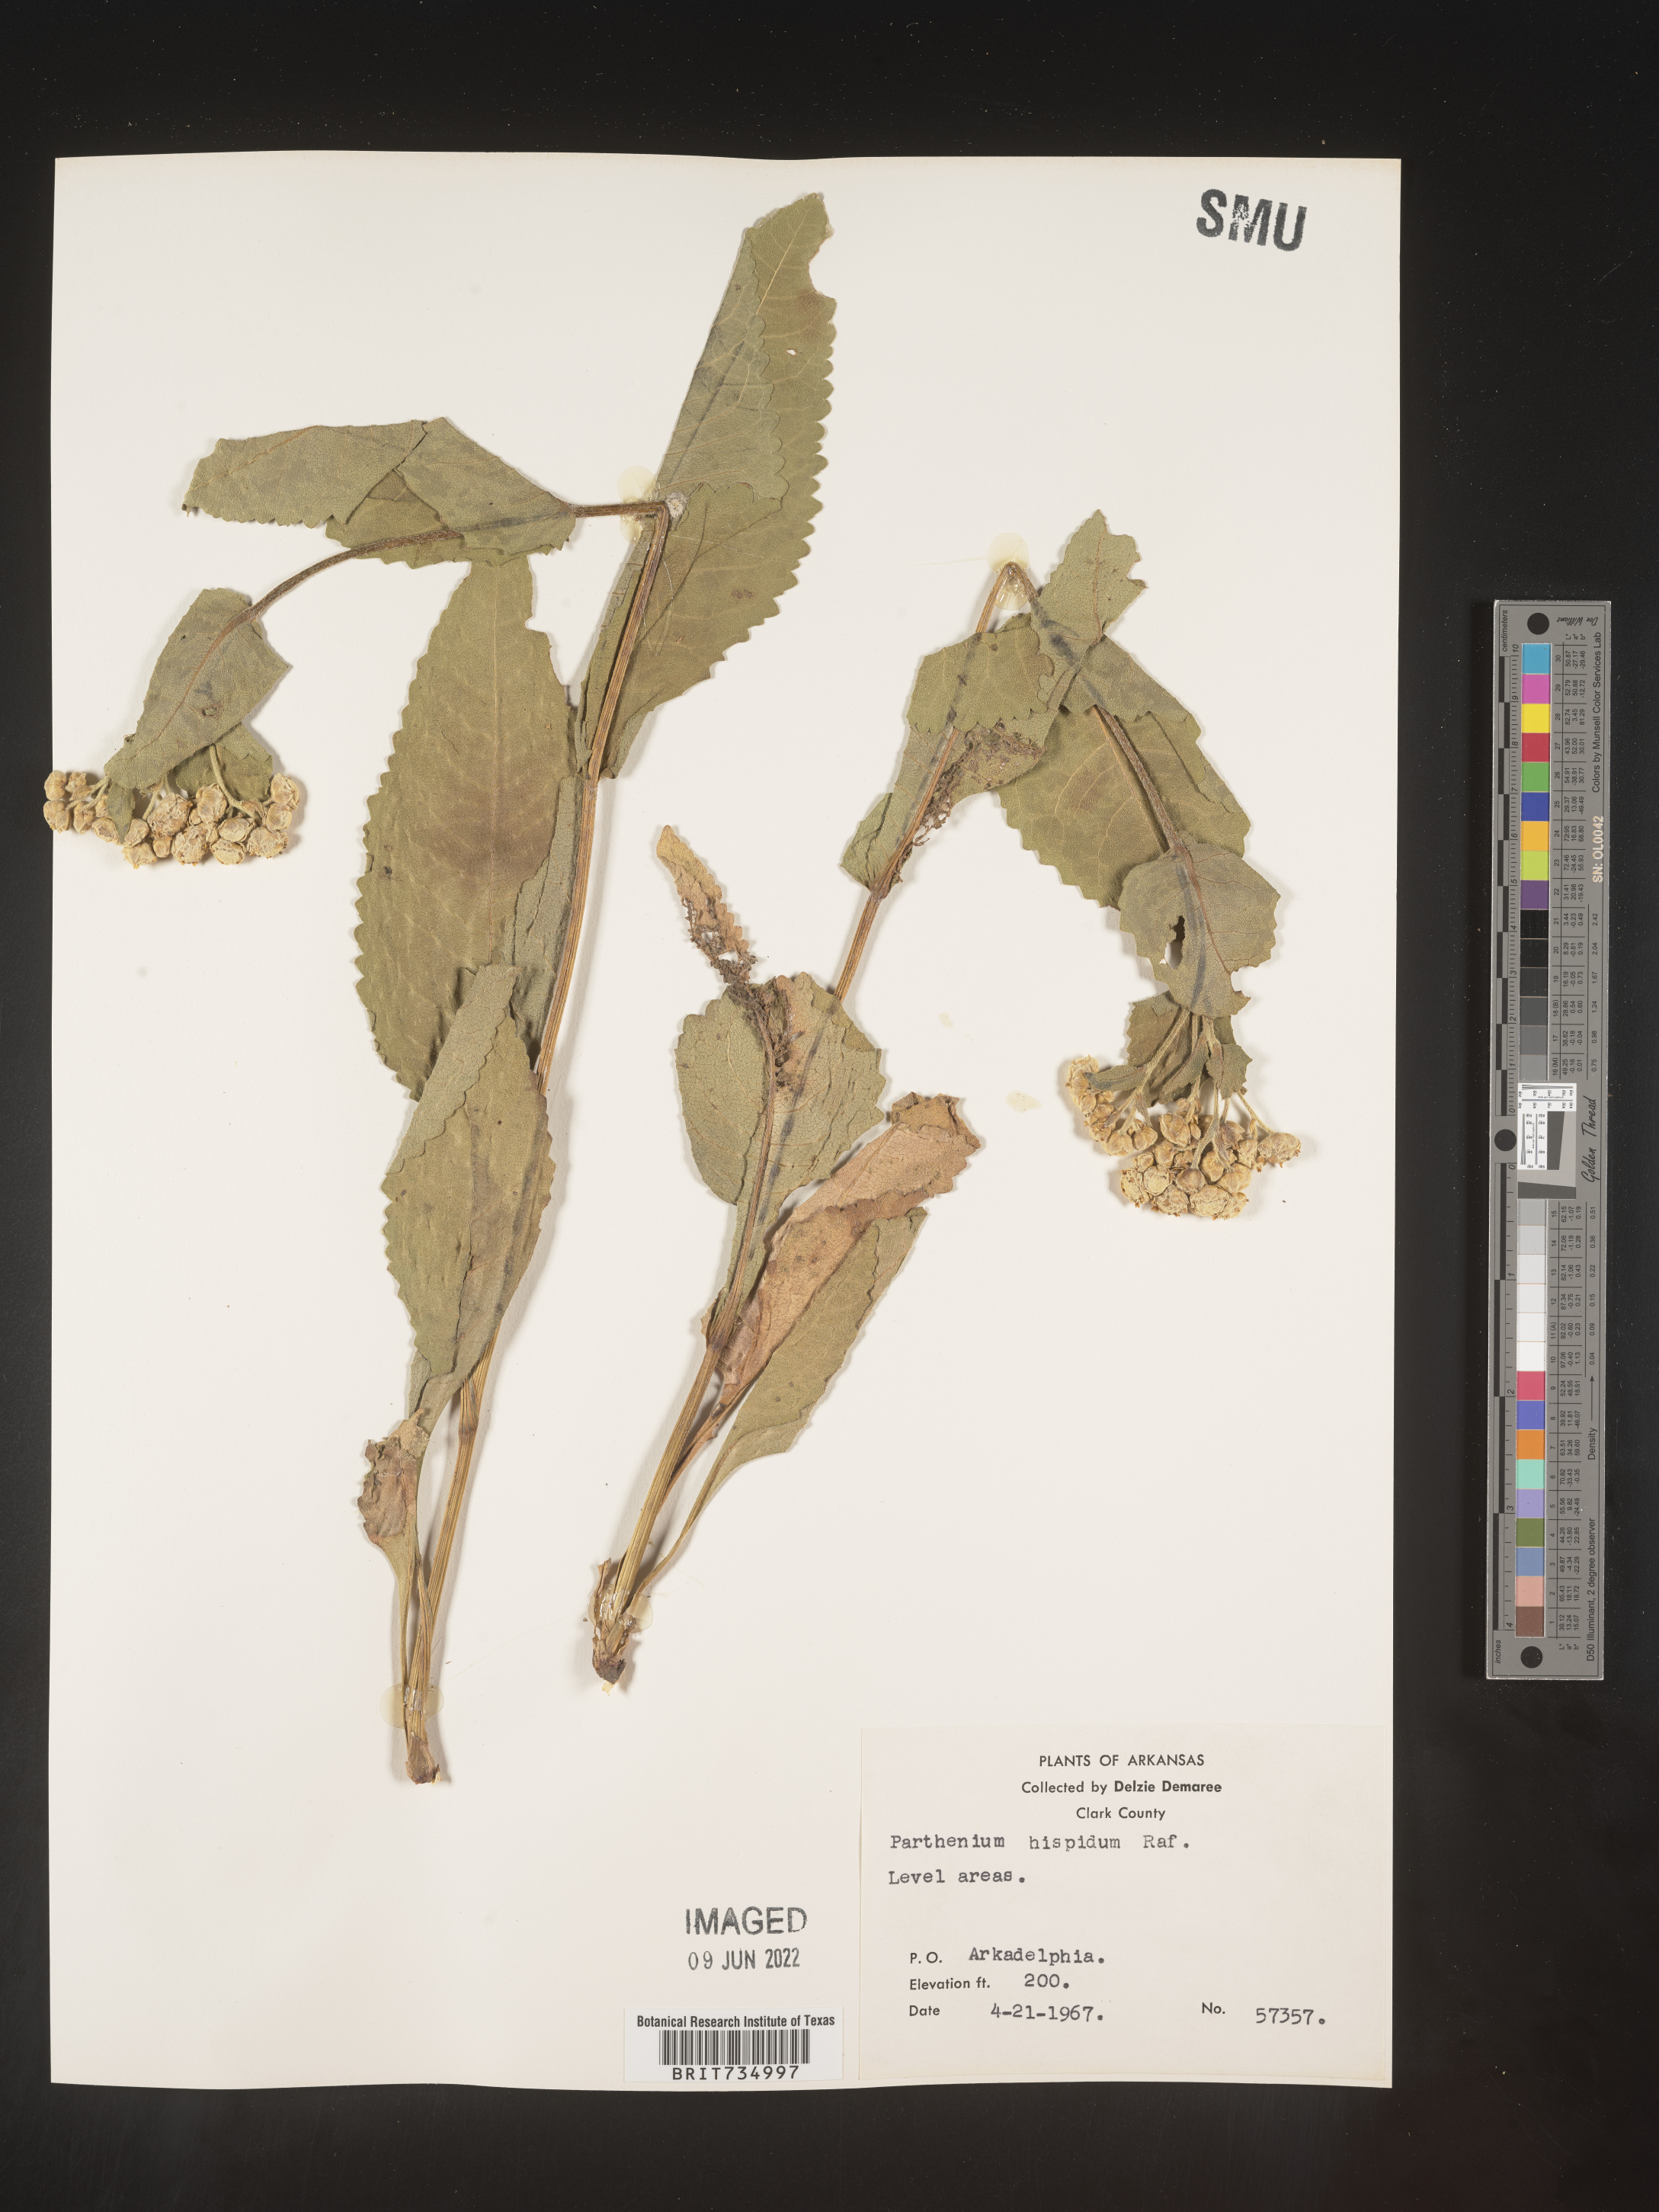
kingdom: Plantae
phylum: Tracheophyta
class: Magnoliopsida
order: Asterales
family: Asteraceae
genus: Parthenium
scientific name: Parthenium hispidum
